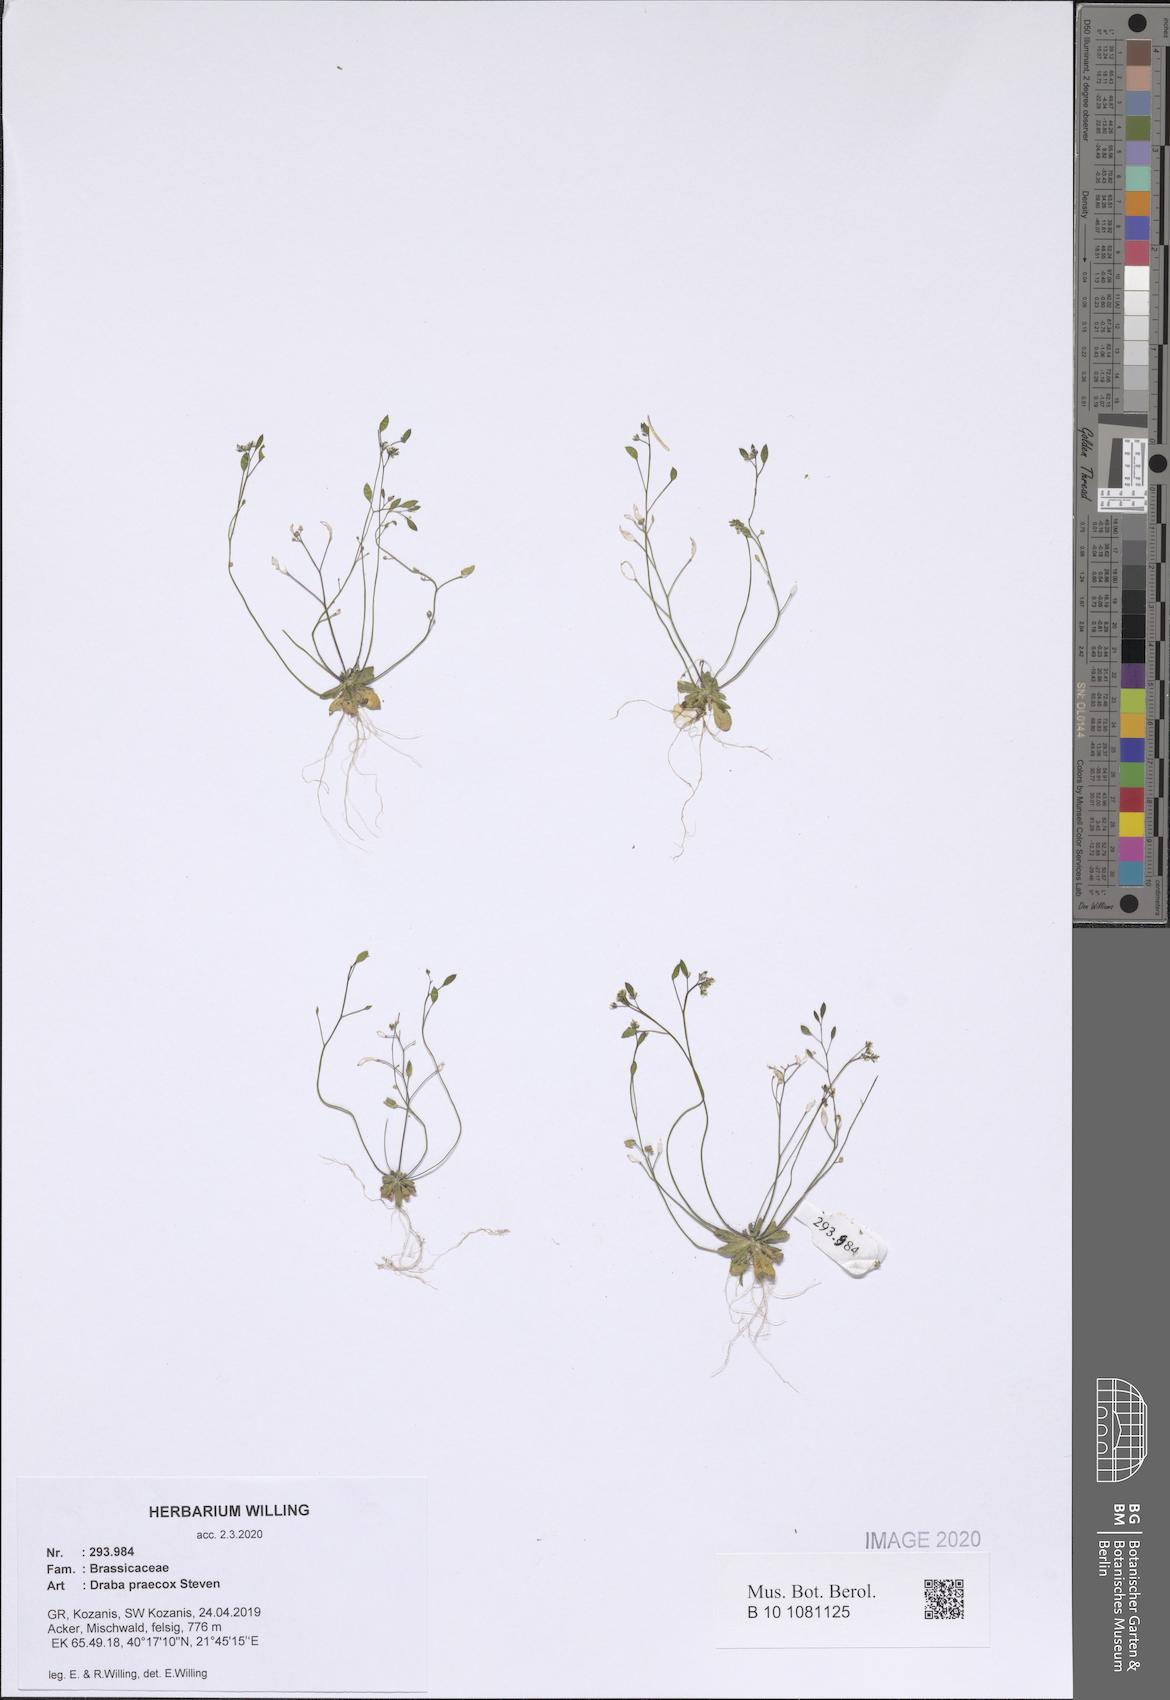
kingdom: Plantae
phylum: Tracheophyta
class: Magnoliopsida
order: Brassicales
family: Brassicaceae
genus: Draba
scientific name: Draba verna
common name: Spring draba
